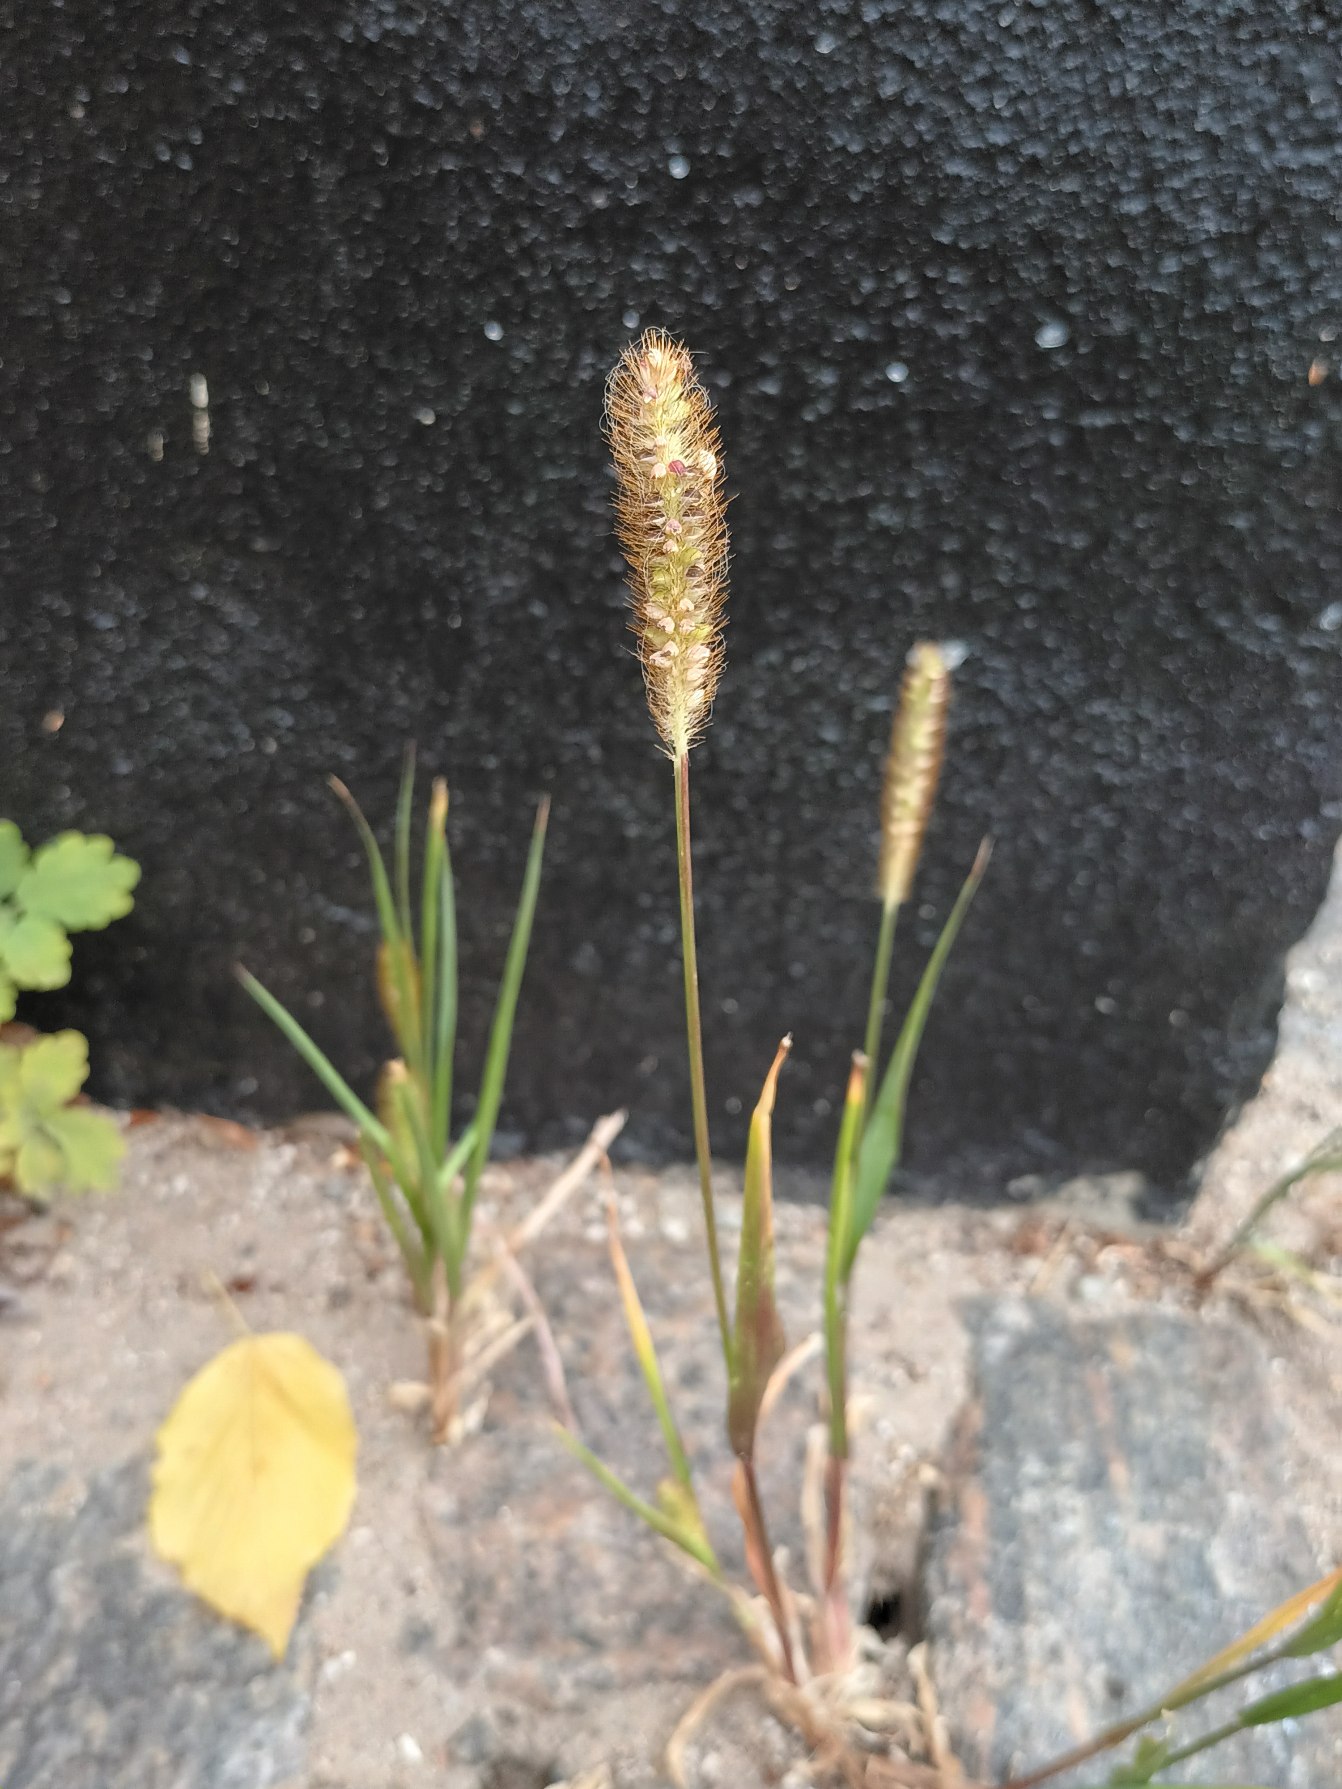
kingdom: Plantae
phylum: Tracheophyta
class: Liliopsida
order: Poales
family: Poaceae
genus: Setaria
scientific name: Setaria pumila
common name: Blågrøn skærmaks
